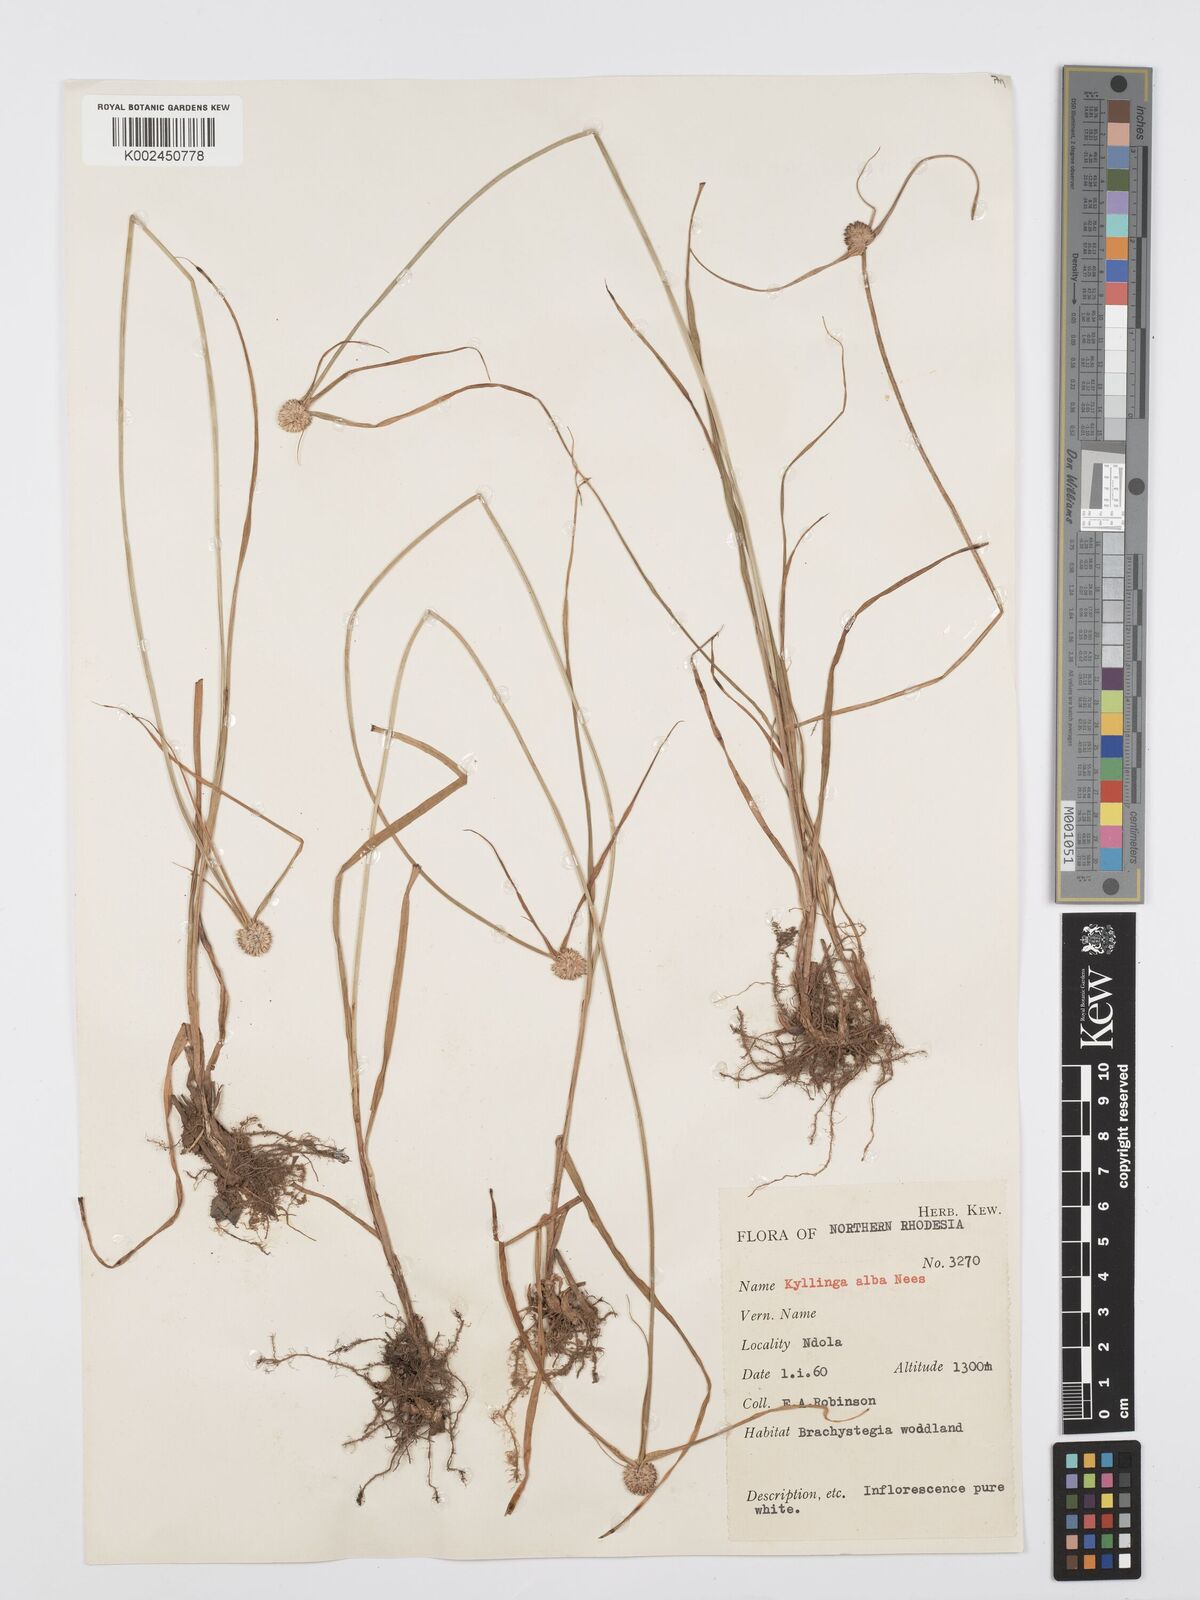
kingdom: Plantae
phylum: Tracheophyta
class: Liliopsida
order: Poales
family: Cyperaceae
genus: Cyperus
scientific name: Cyperus rukwanus
